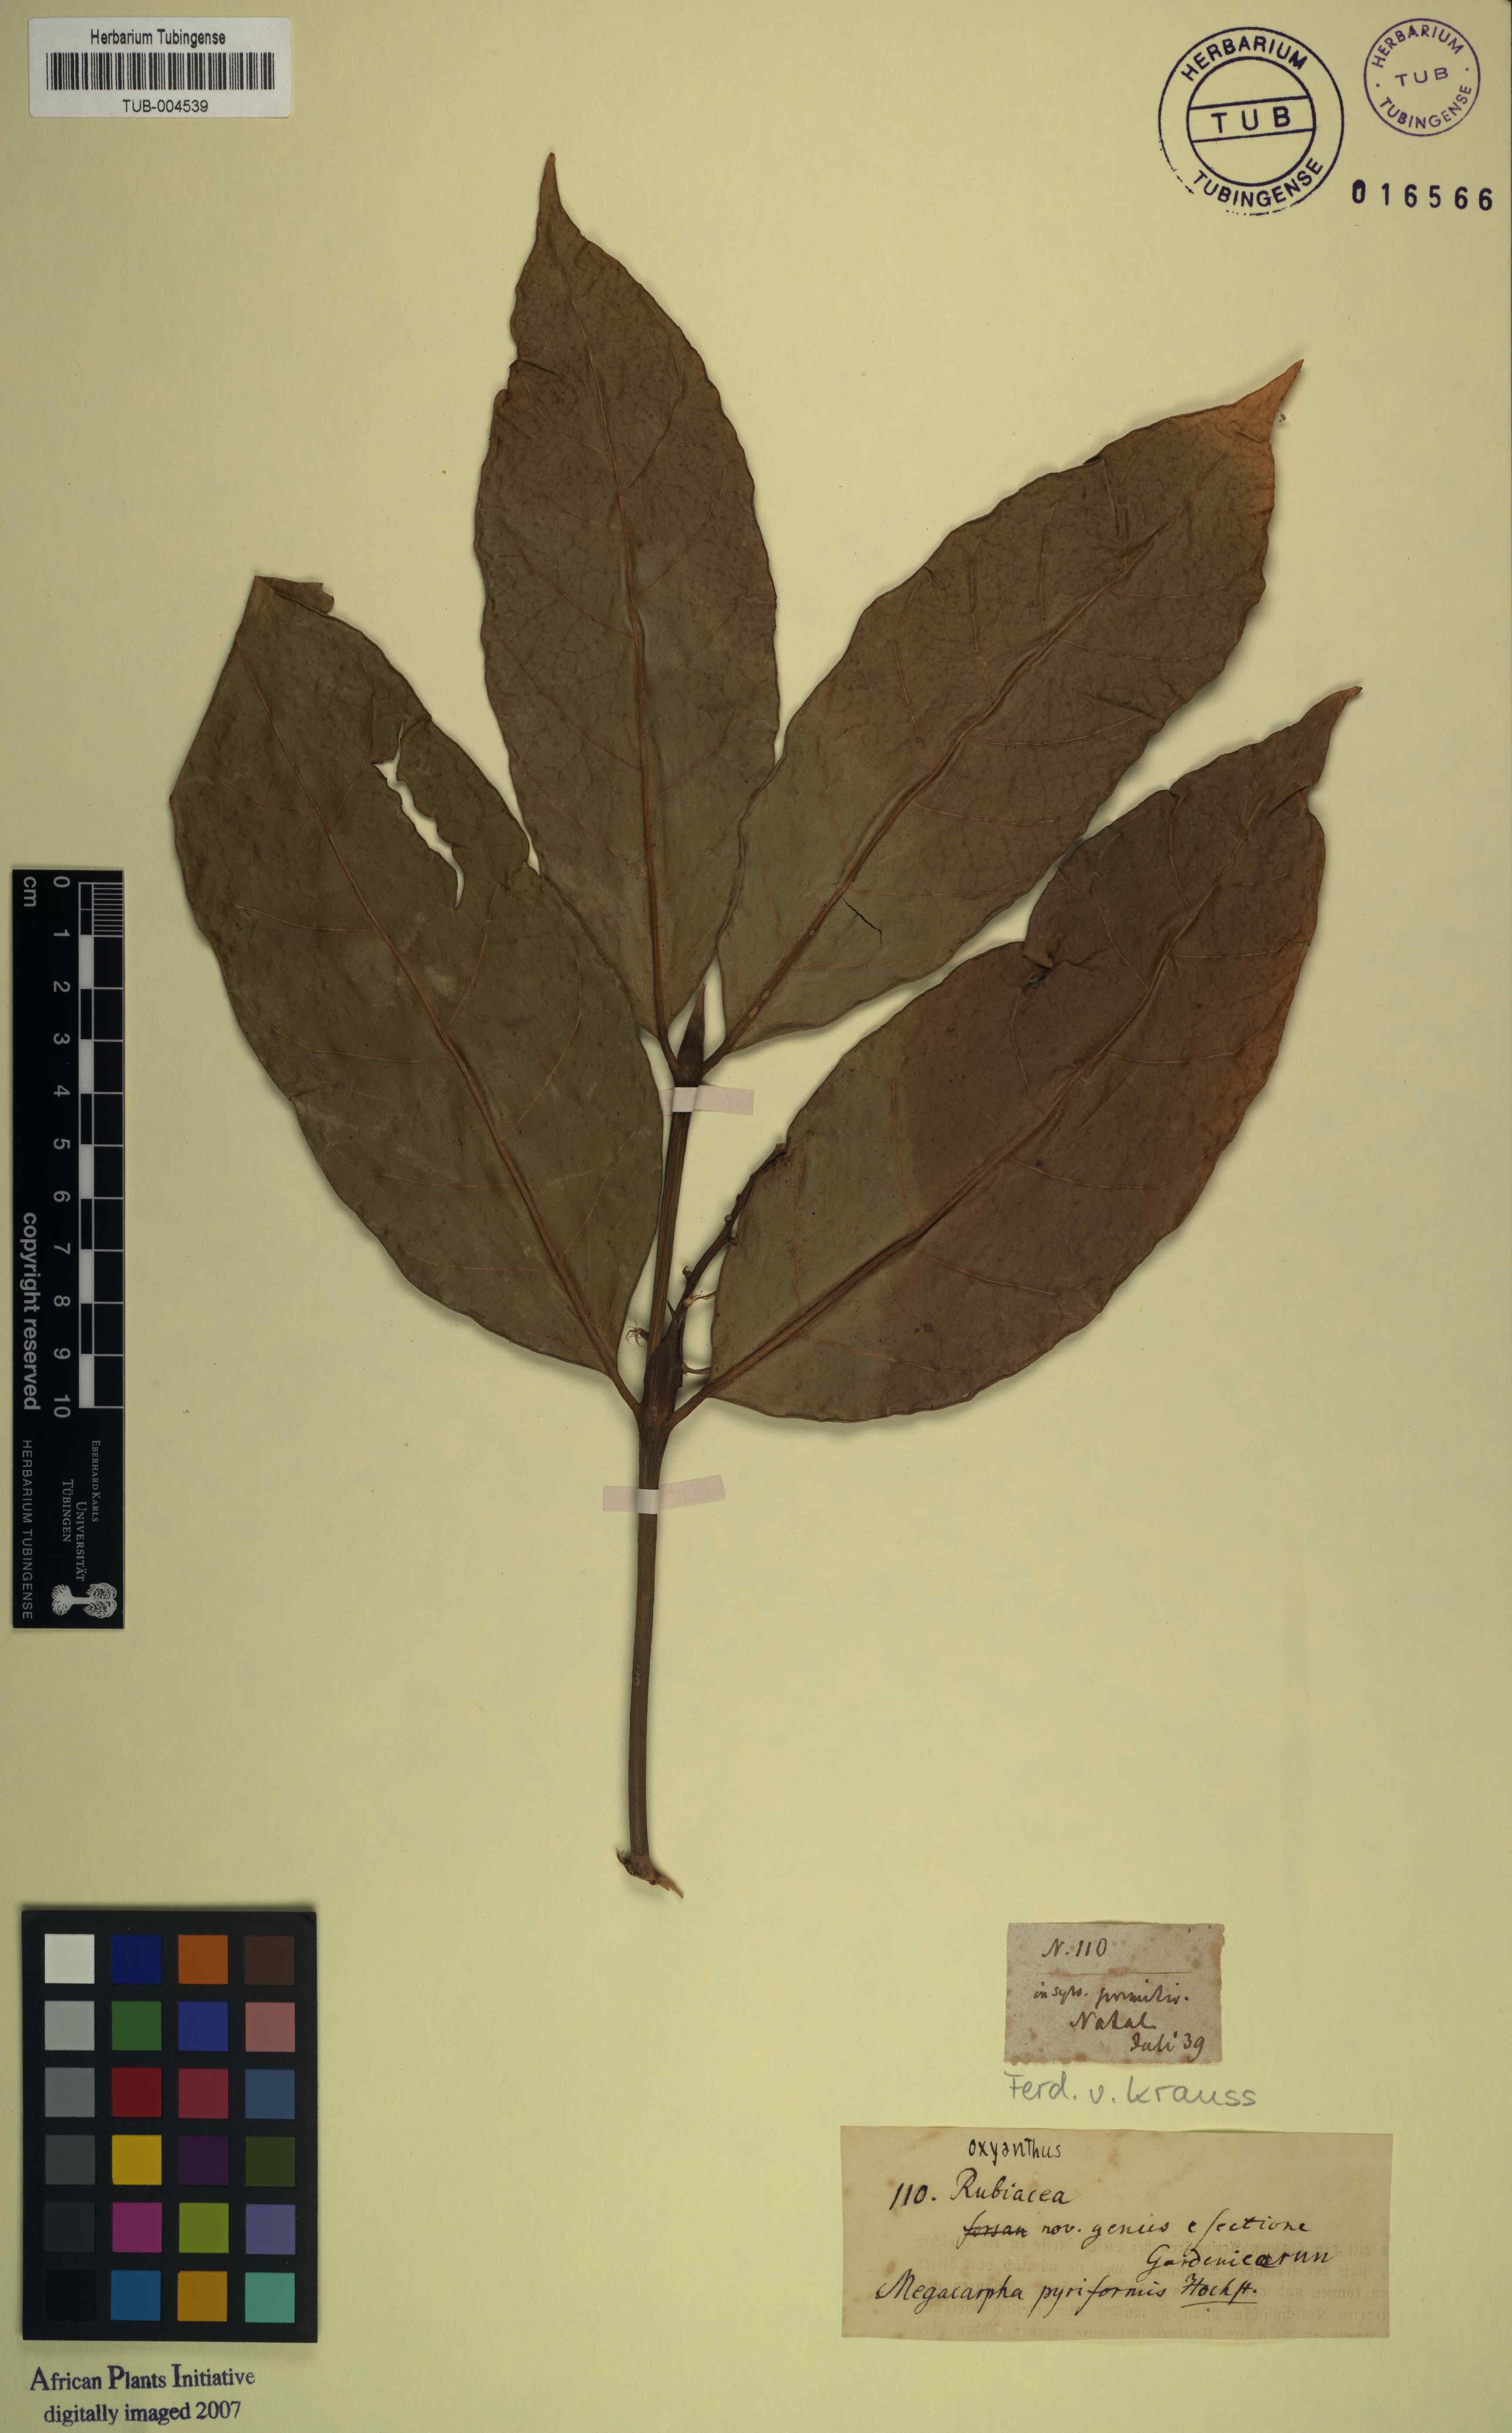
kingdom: Plantae
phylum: Tracheophyta
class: Magnoliopsida
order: Gentianales
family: Rubiaceae
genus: Oxyanthus
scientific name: Oxyanthus pyriformis
